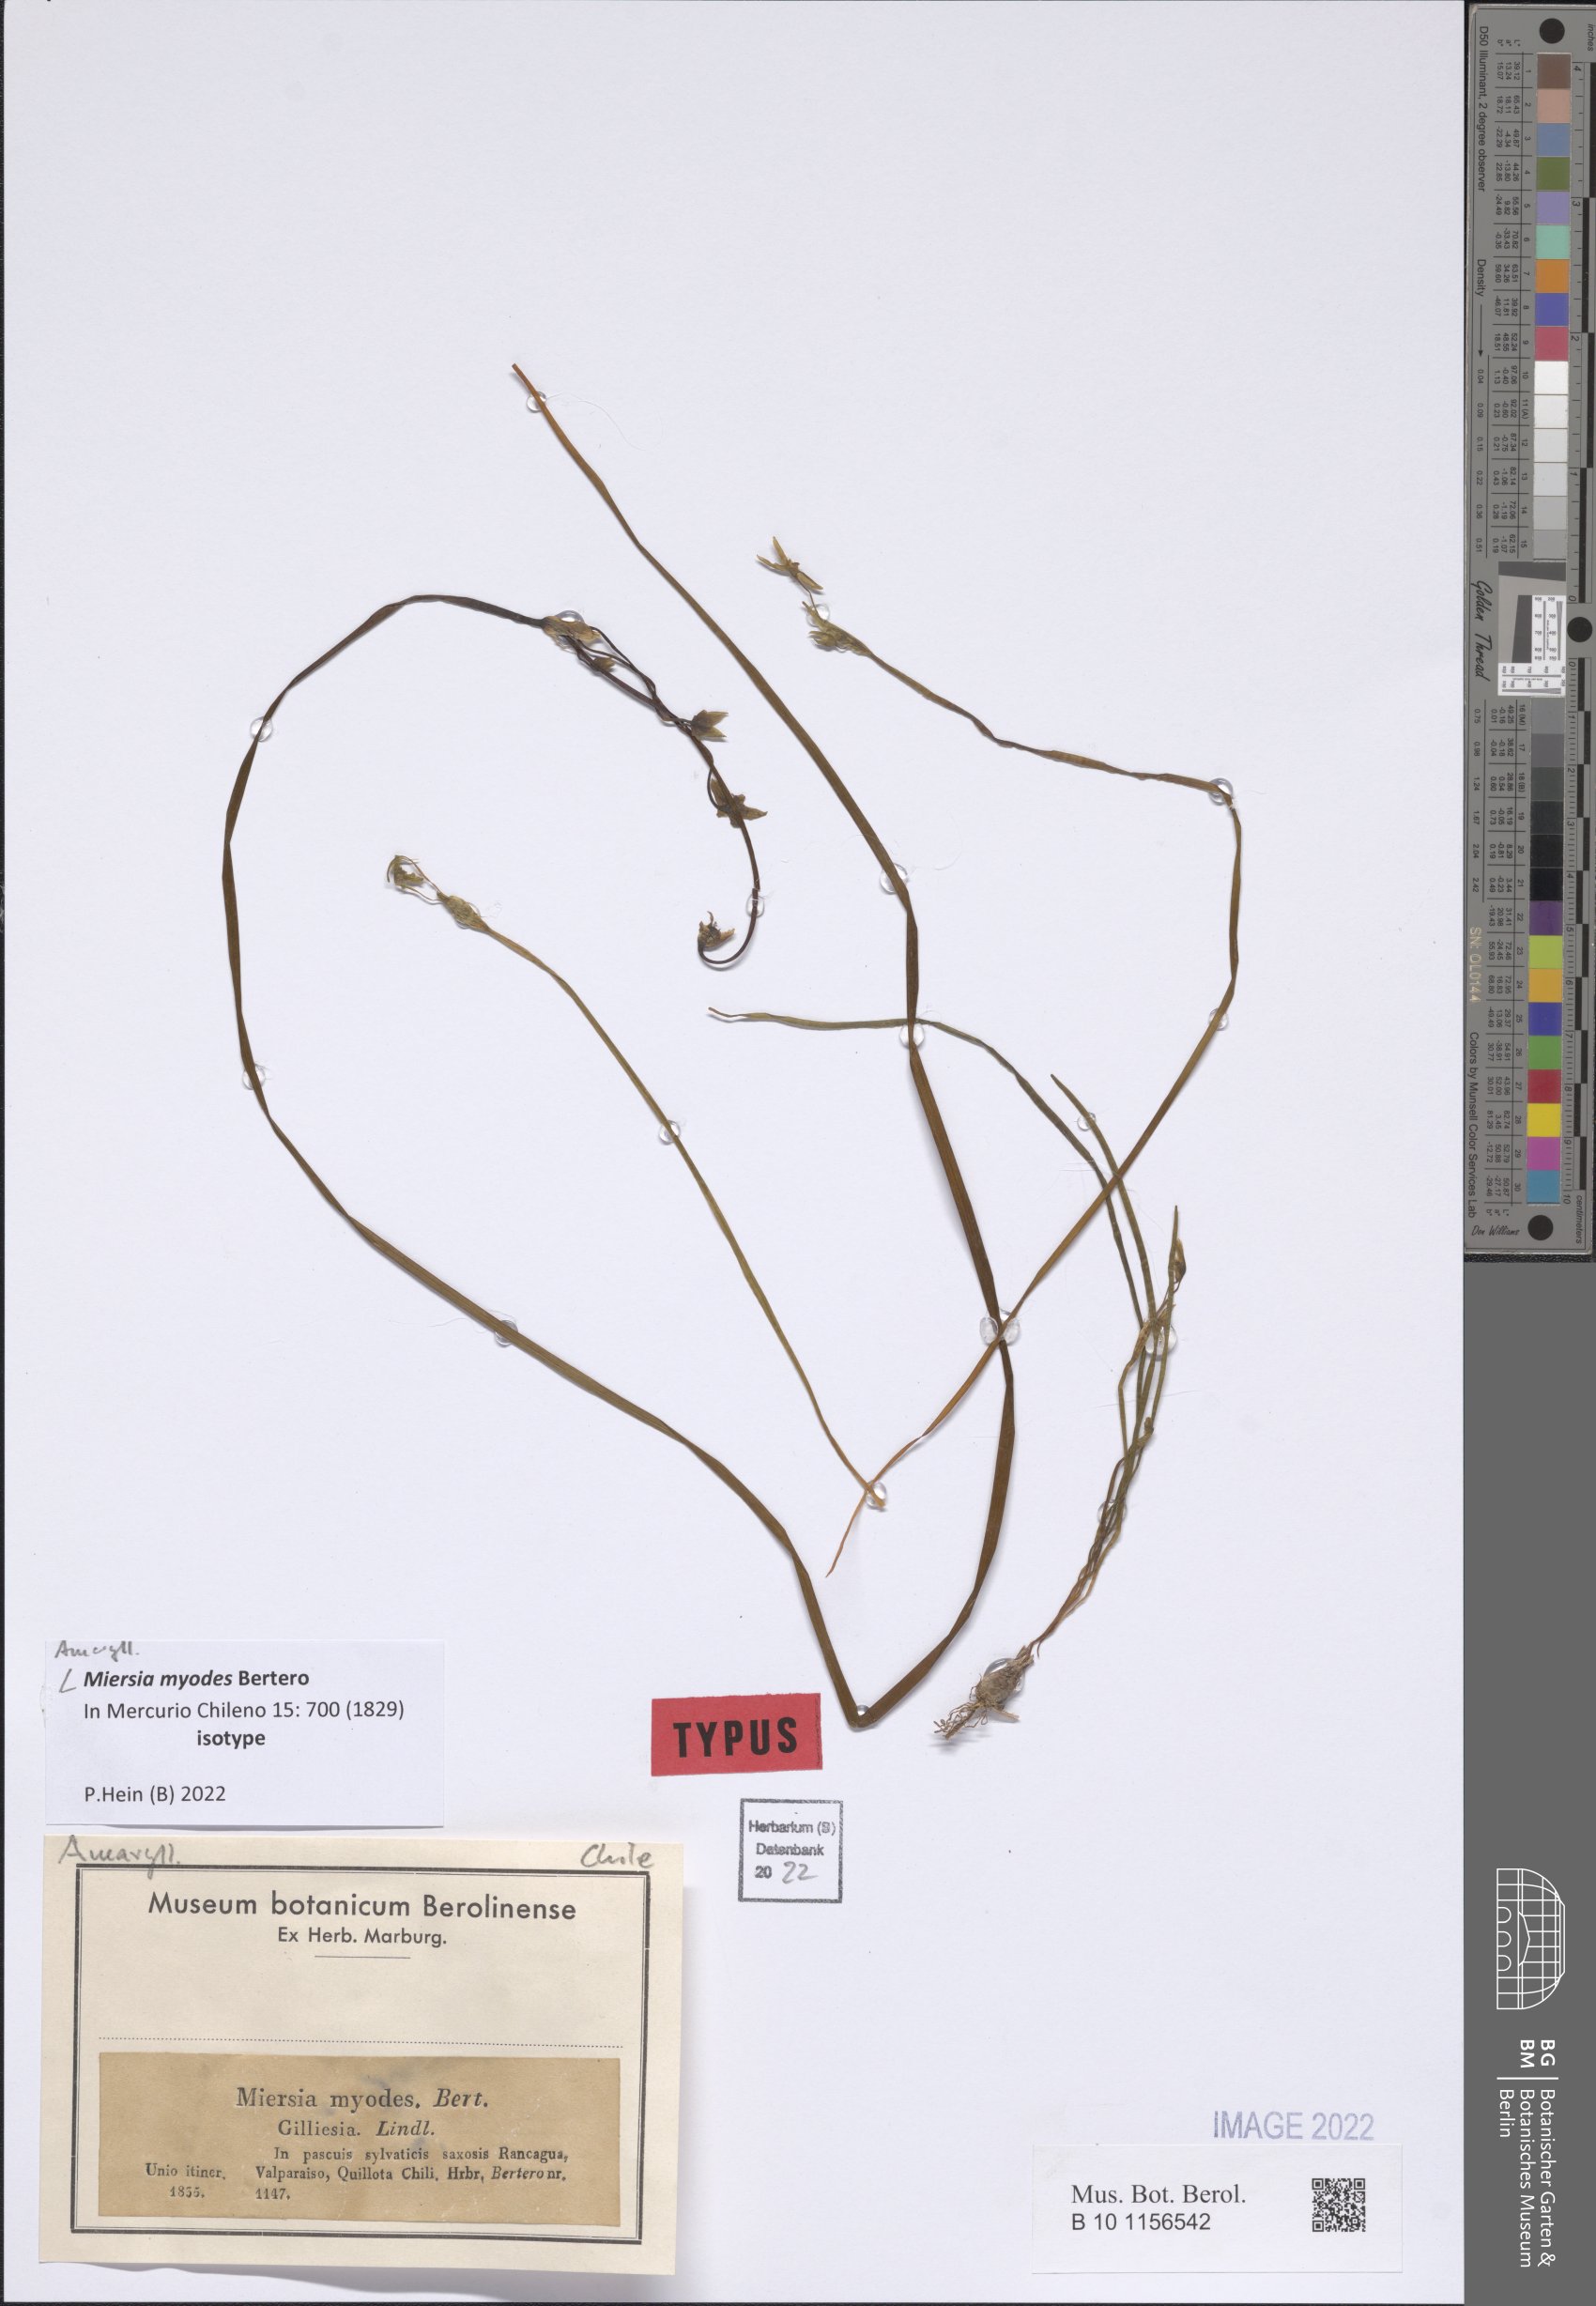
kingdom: Plantae
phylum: Tracheophyta
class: Liliopsida
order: Asparagales
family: Amaryllidaceae
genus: Miersia
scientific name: Miersia myodes
